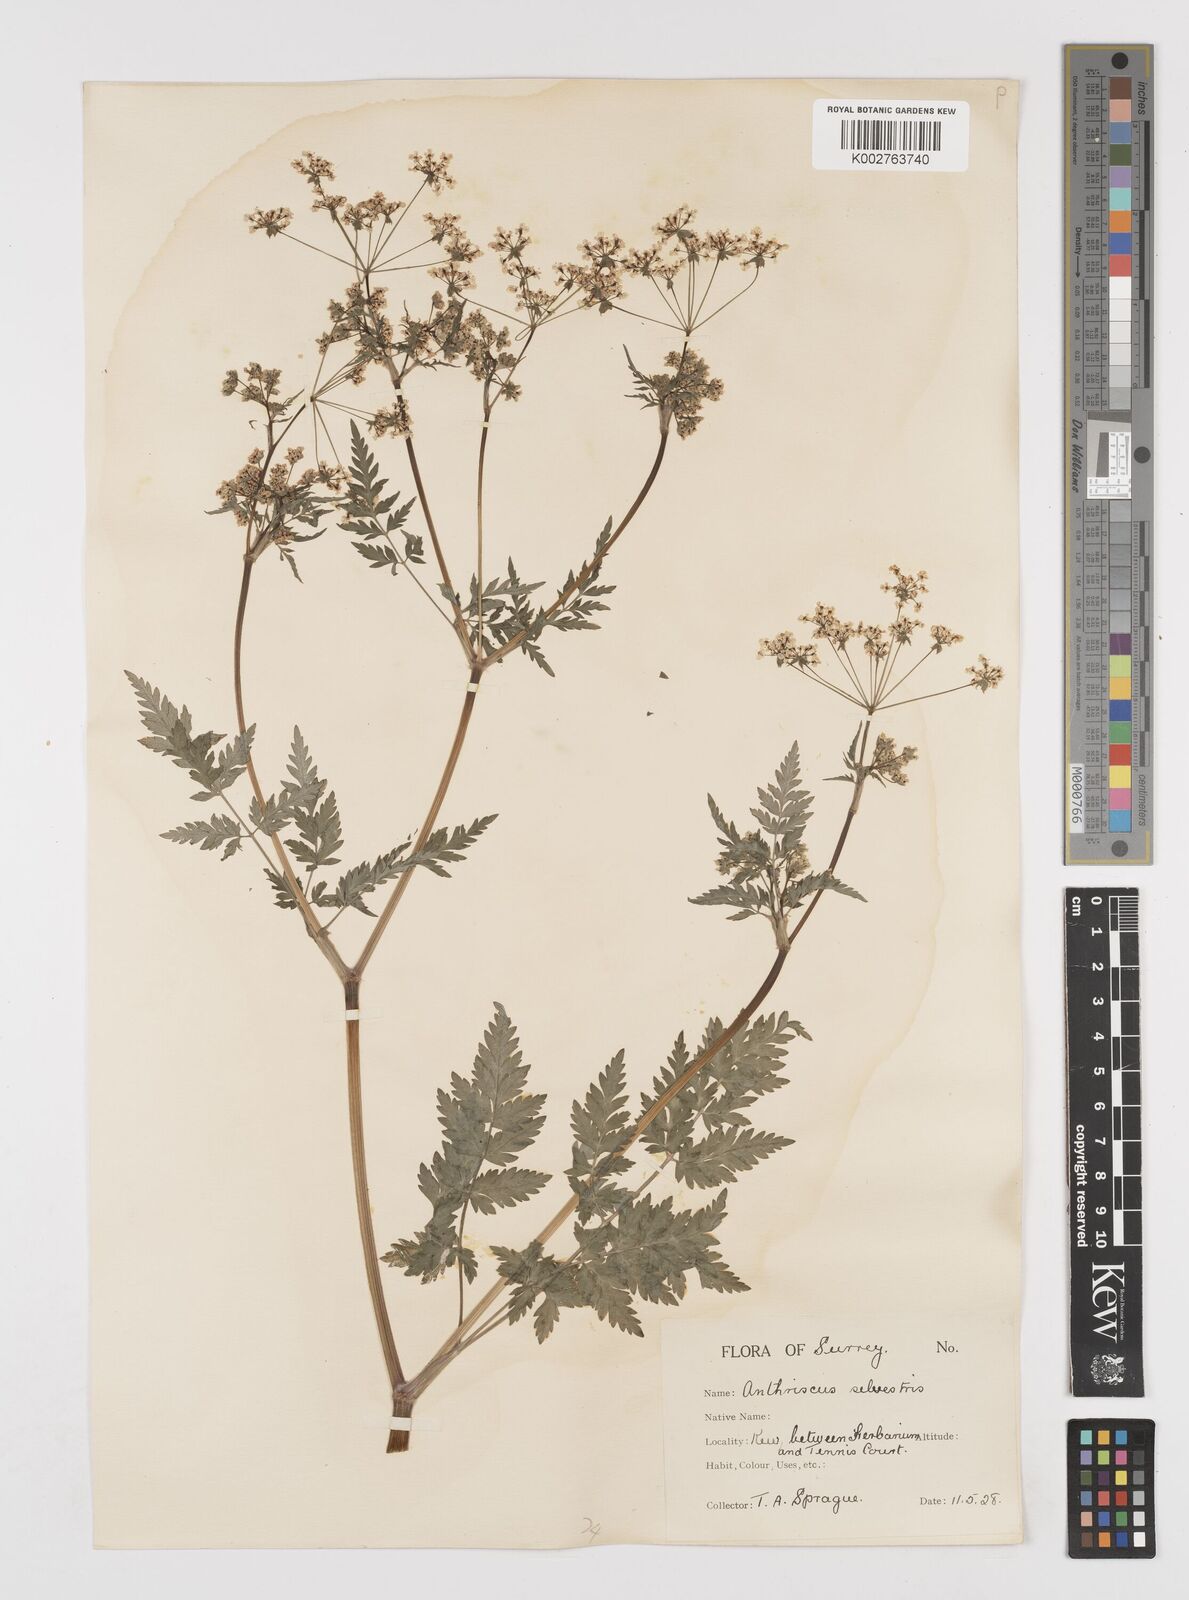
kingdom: Plantae
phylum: Tracheophyta
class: Magnoliopsida
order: Apiales
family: Apiaceae
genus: Anthriscus
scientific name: Anthriscus sylvestris
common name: Cow parsley
